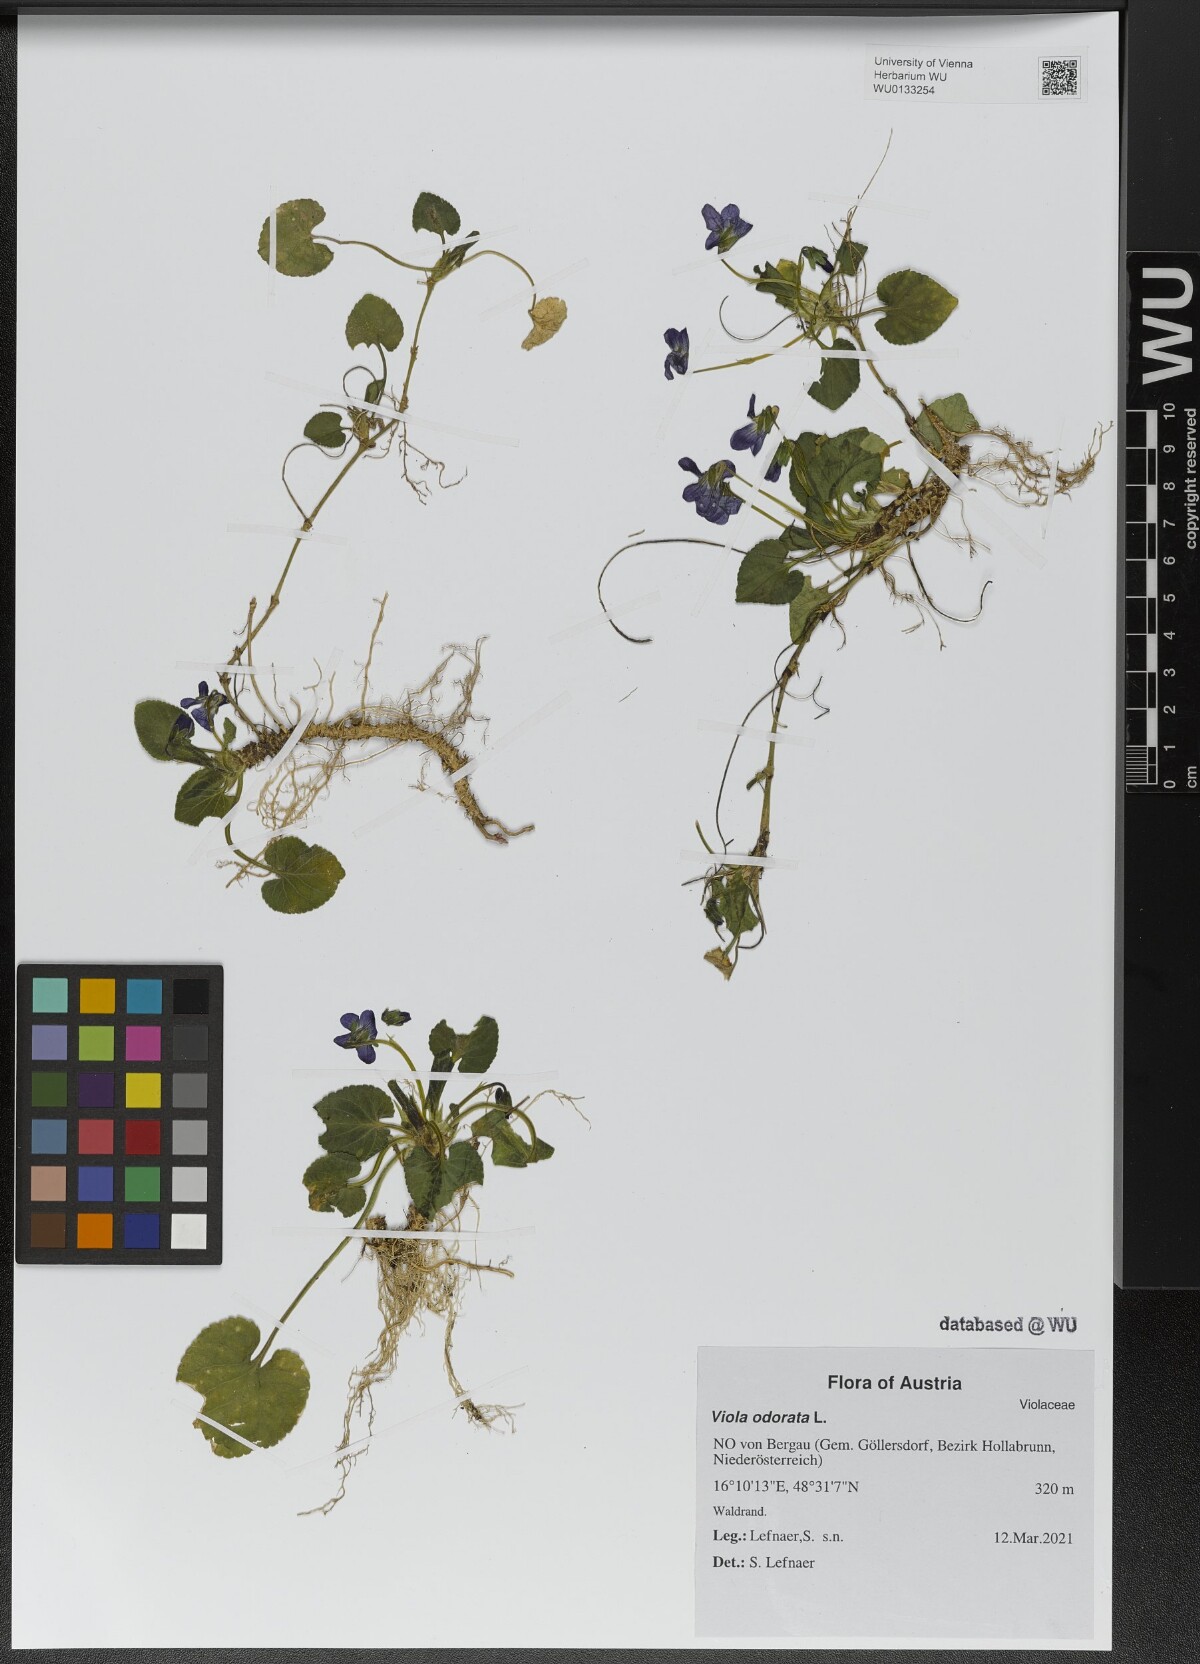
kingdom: Plantae
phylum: Tracheophyta
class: Magnoliopsida
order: Malpighiales
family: Violaceae
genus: Viola
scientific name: Viola odorata
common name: Sweet violet
